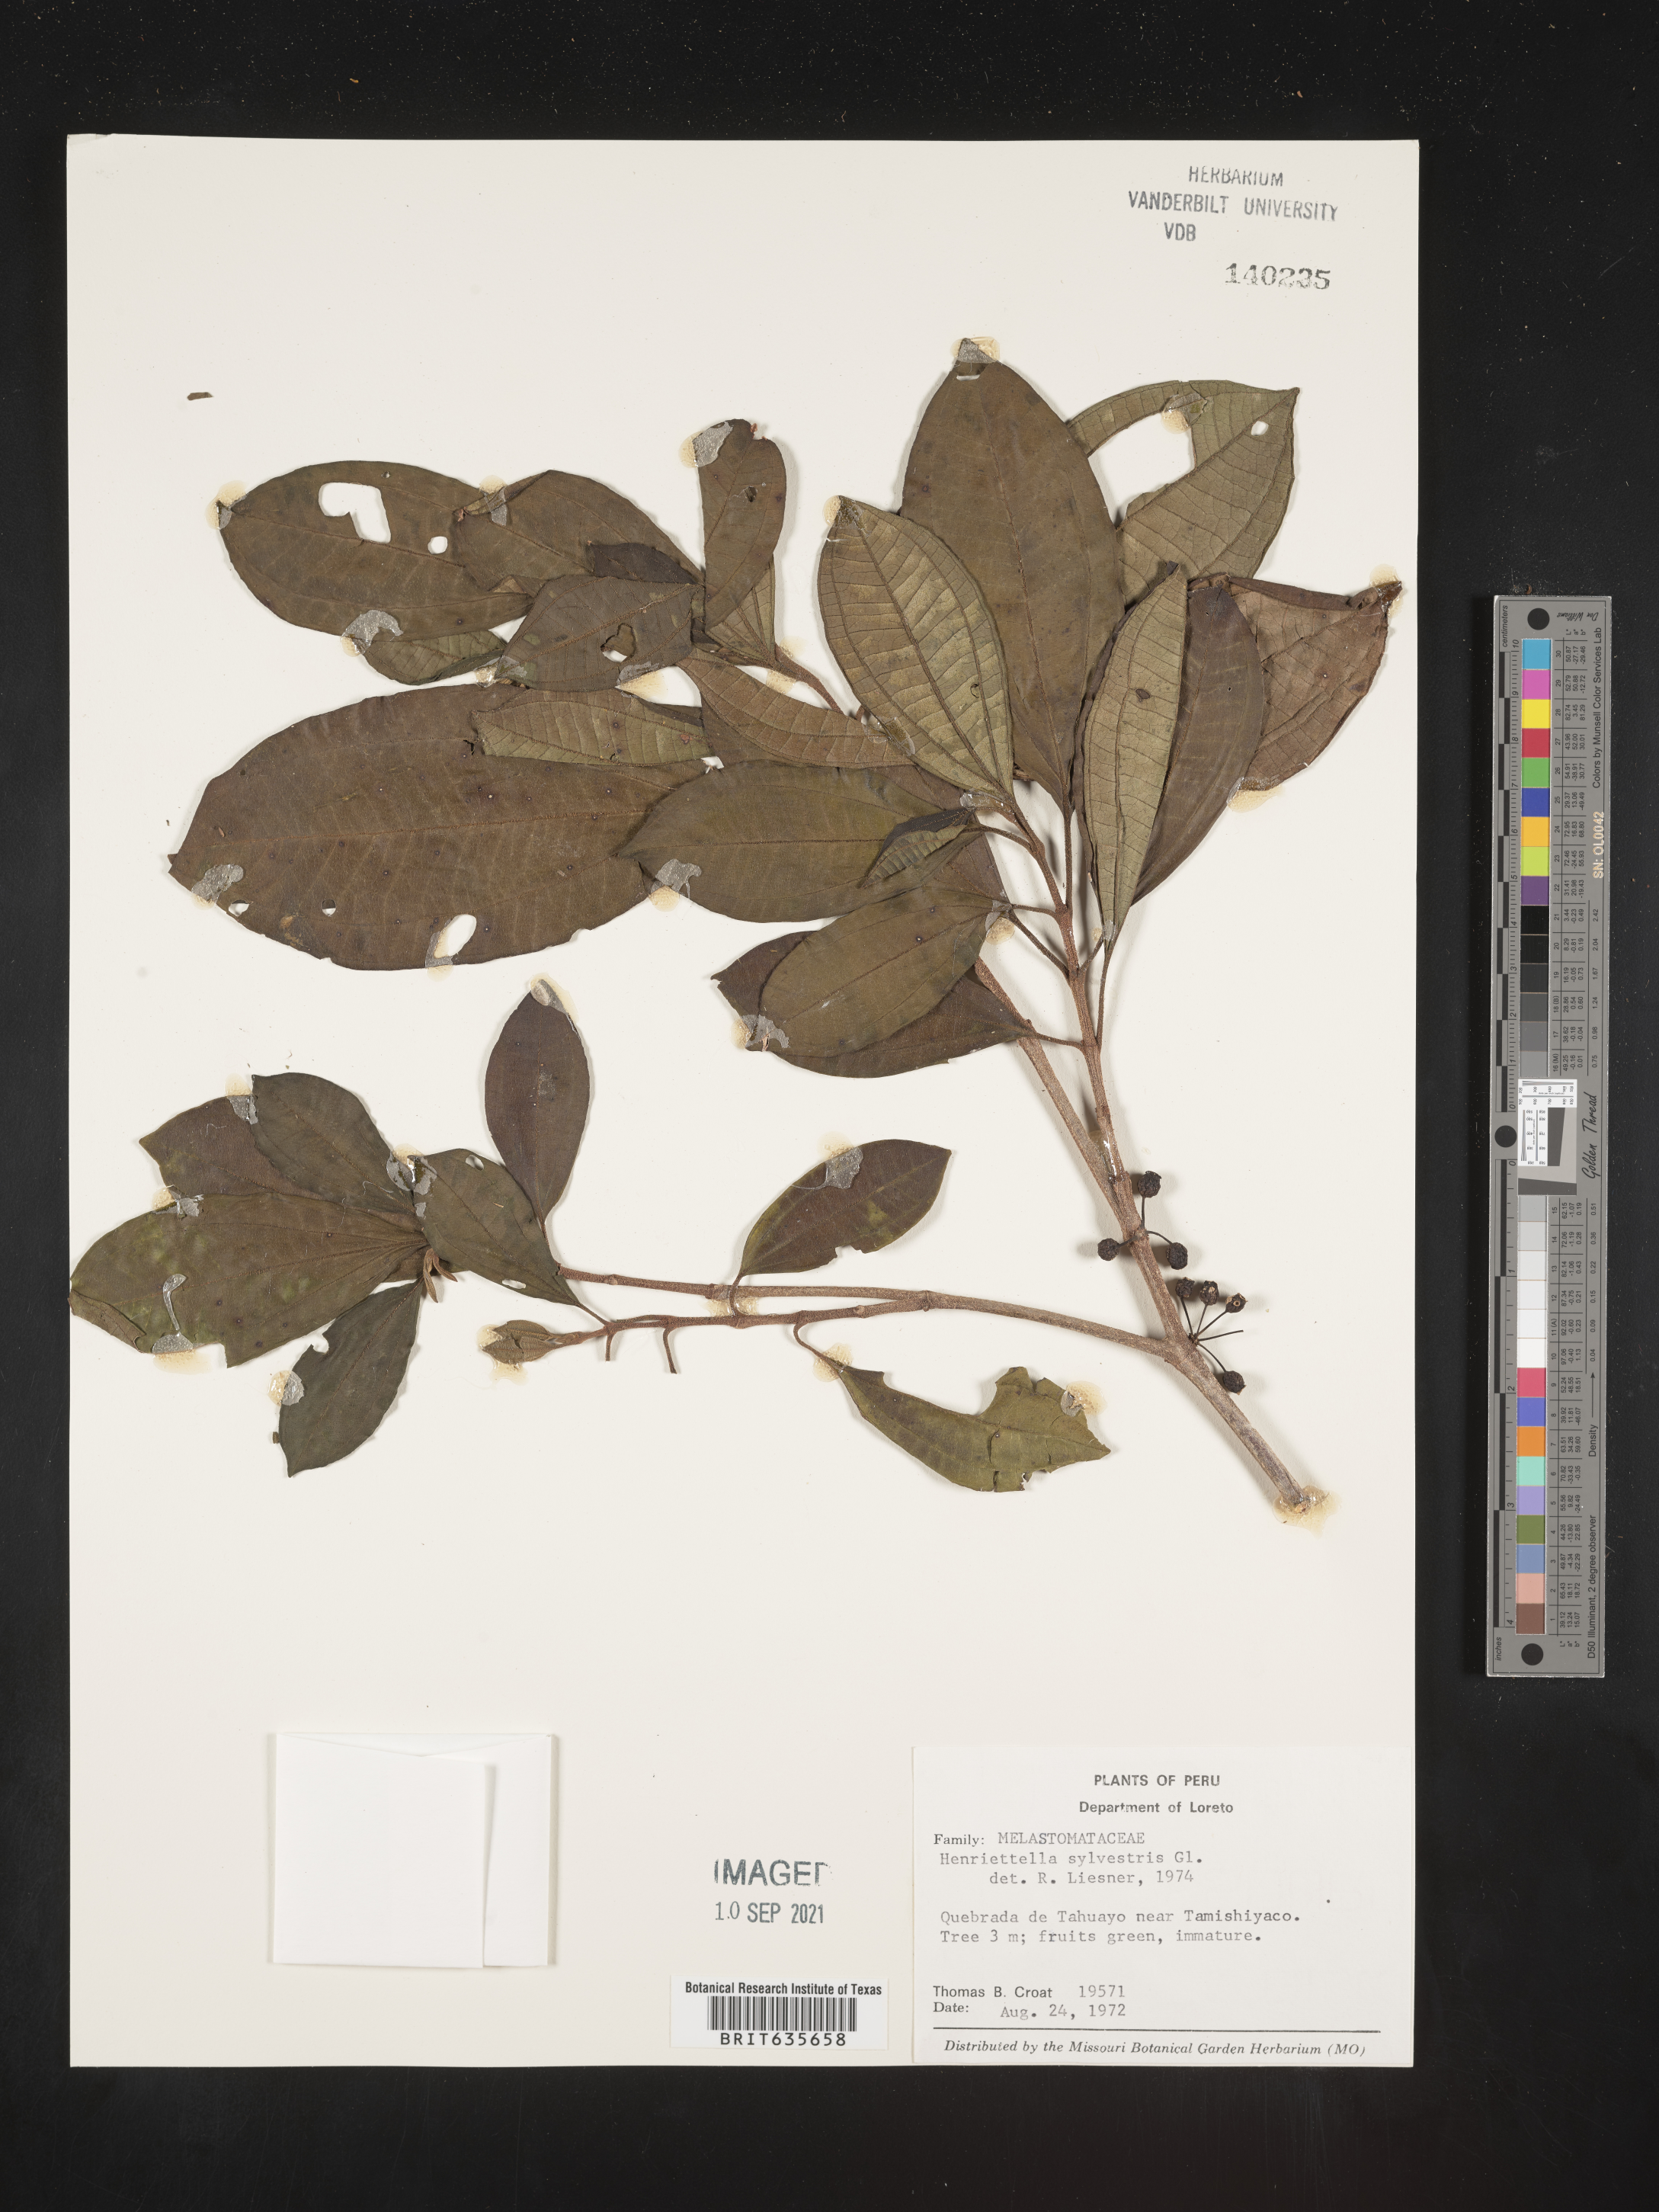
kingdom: Plantae
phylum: Tracheophyta
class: Magnoliopsida
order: Myrtales
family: Melastomataceae
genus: Henriettea
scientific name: Henriettea
